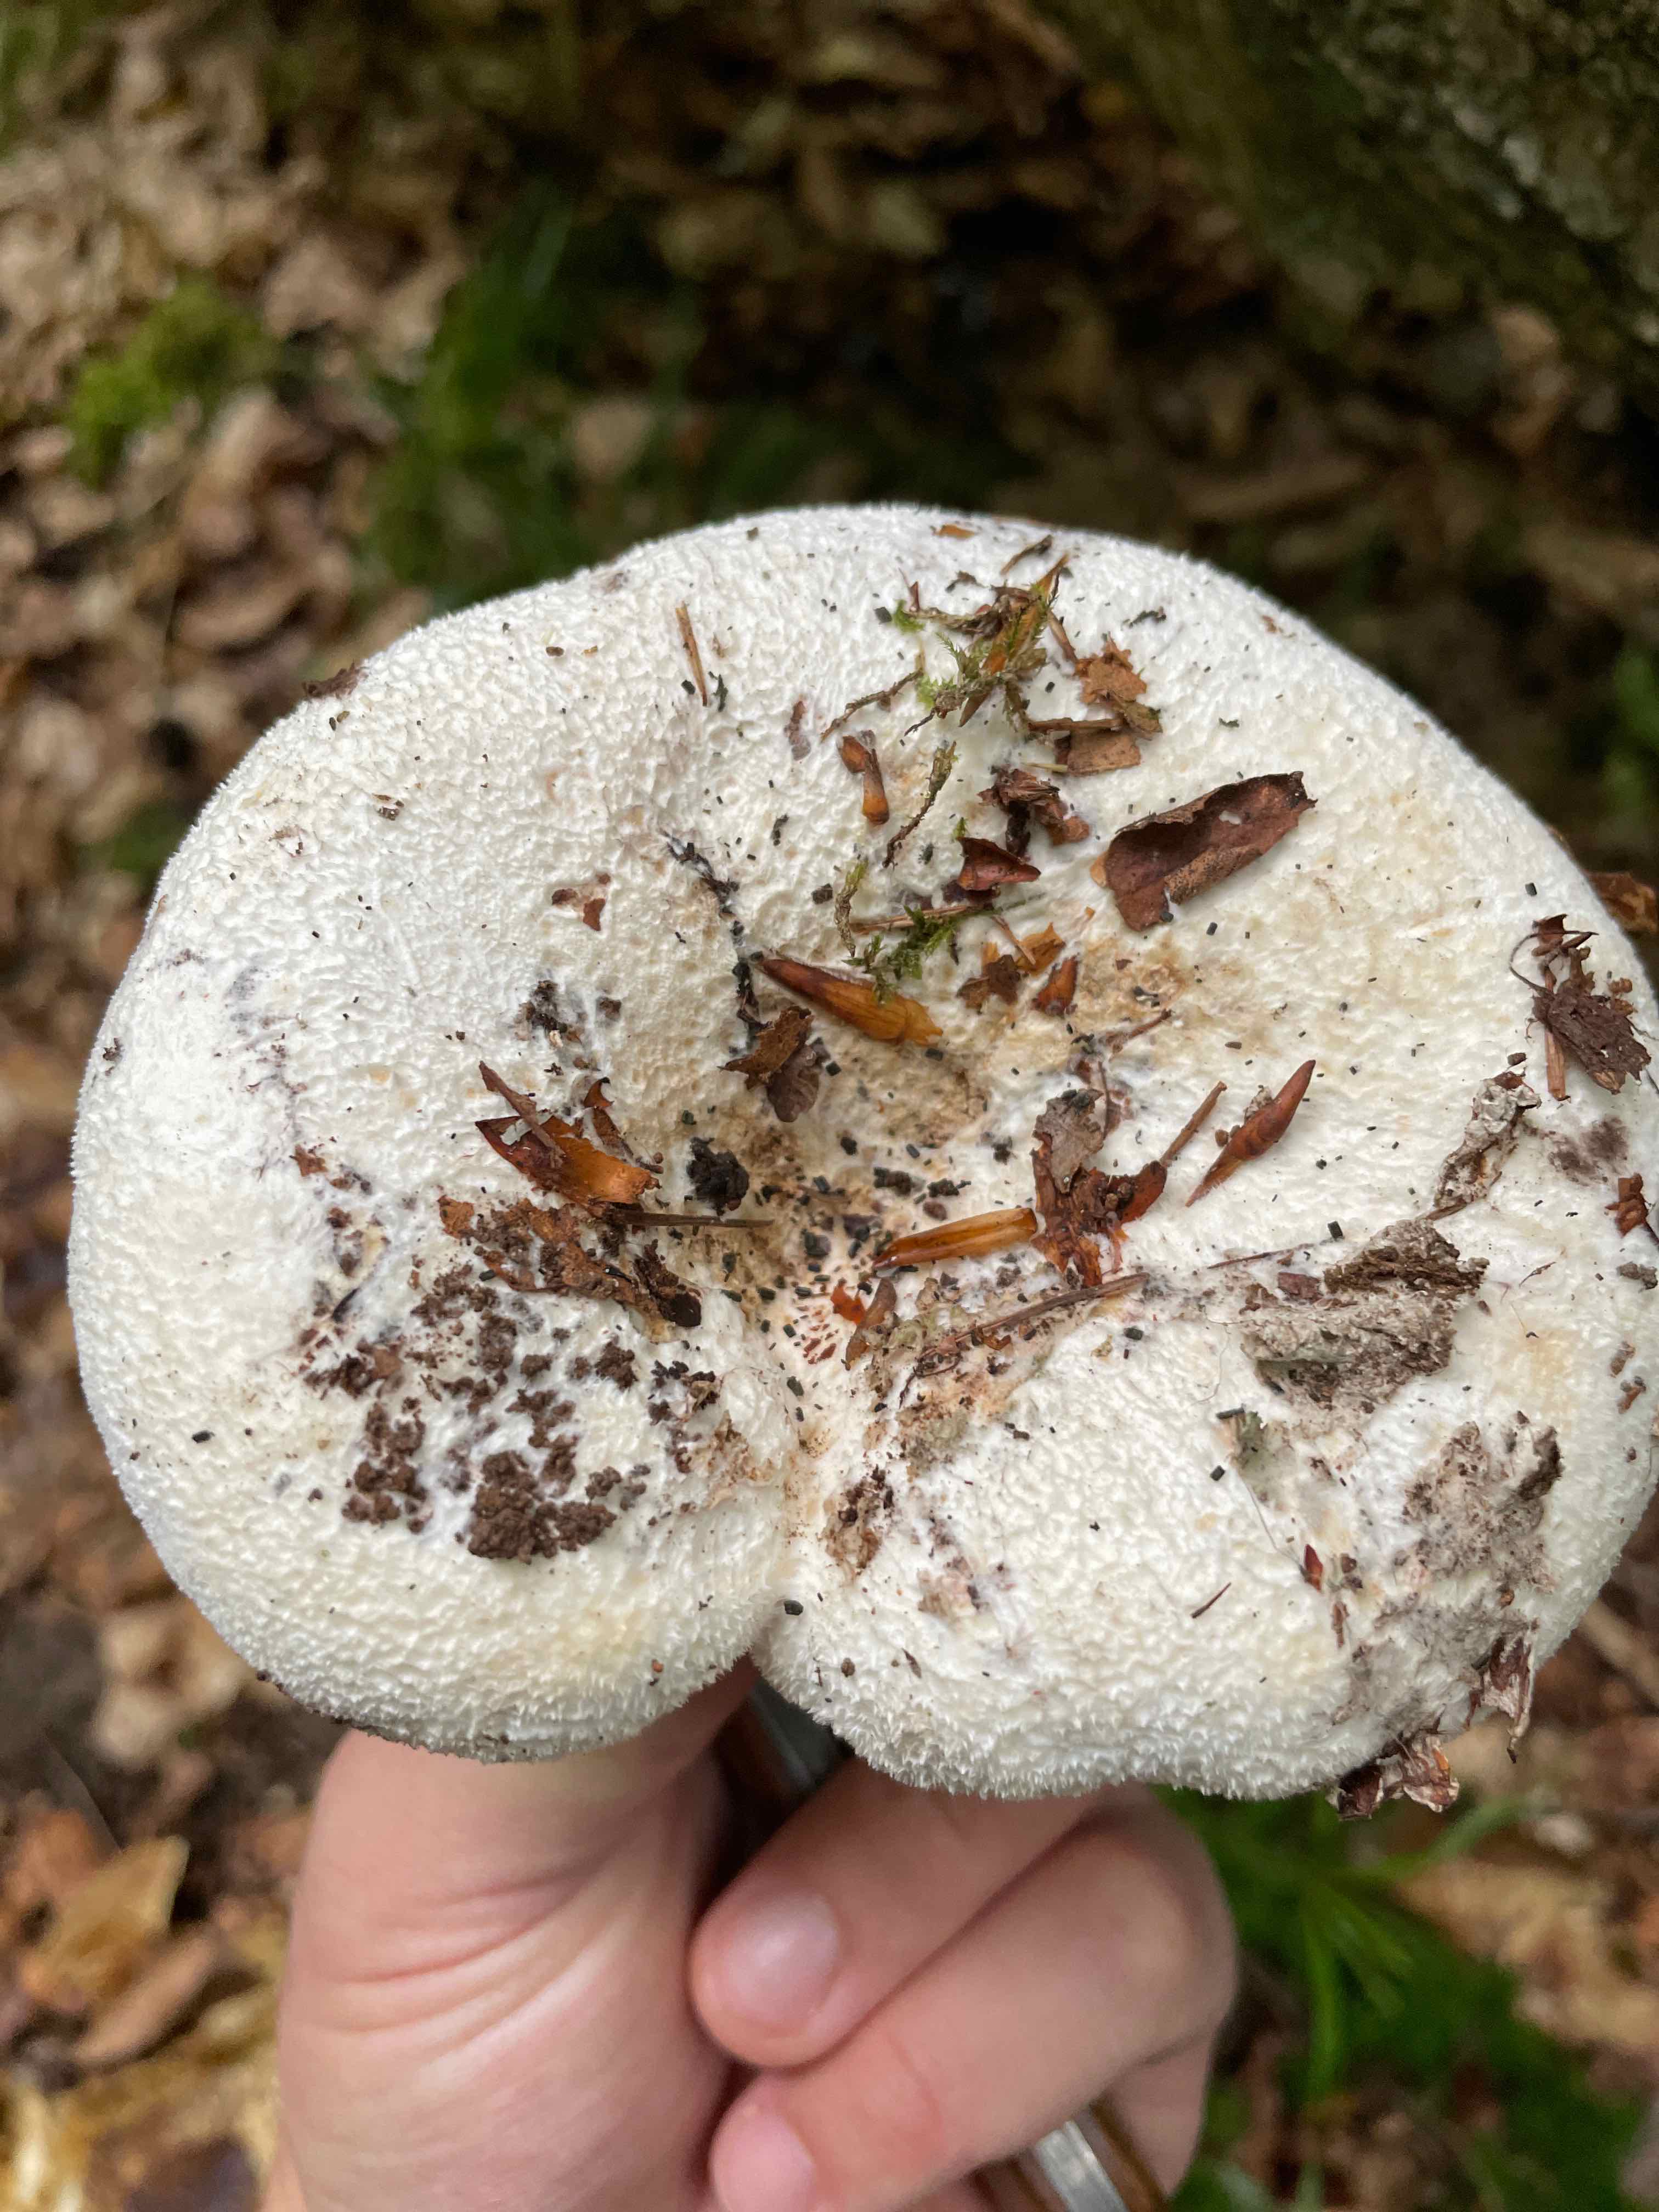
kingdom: Fungi
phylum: Basidiomycota
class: Agaricomycetes
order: Russulales
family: Russulaceae
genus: Lactifluus
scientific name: Lactifluus vellereus
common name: hvidfiltet mælkehat
